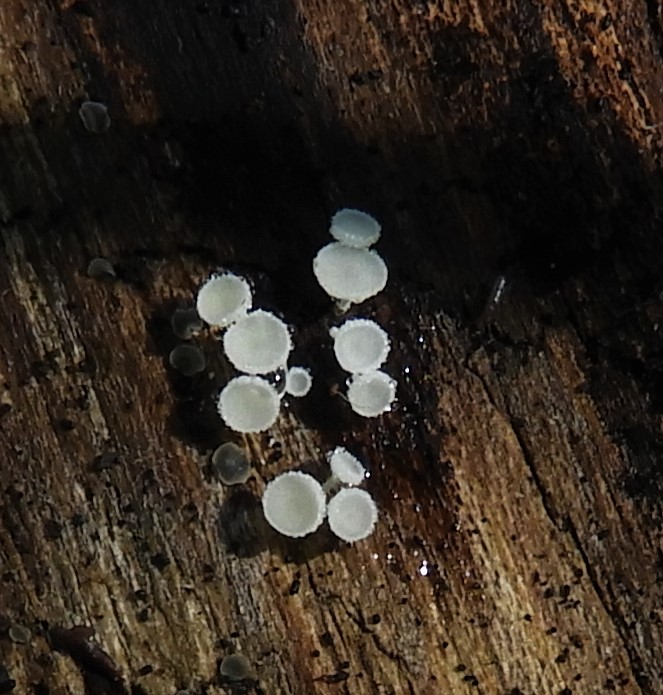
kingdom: Fungi
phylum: Ascomycota
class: Leotiomycetes
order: Helotiales
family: Lachnaceae
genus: Lachnum
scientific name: Lachnum
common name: frynseskive
